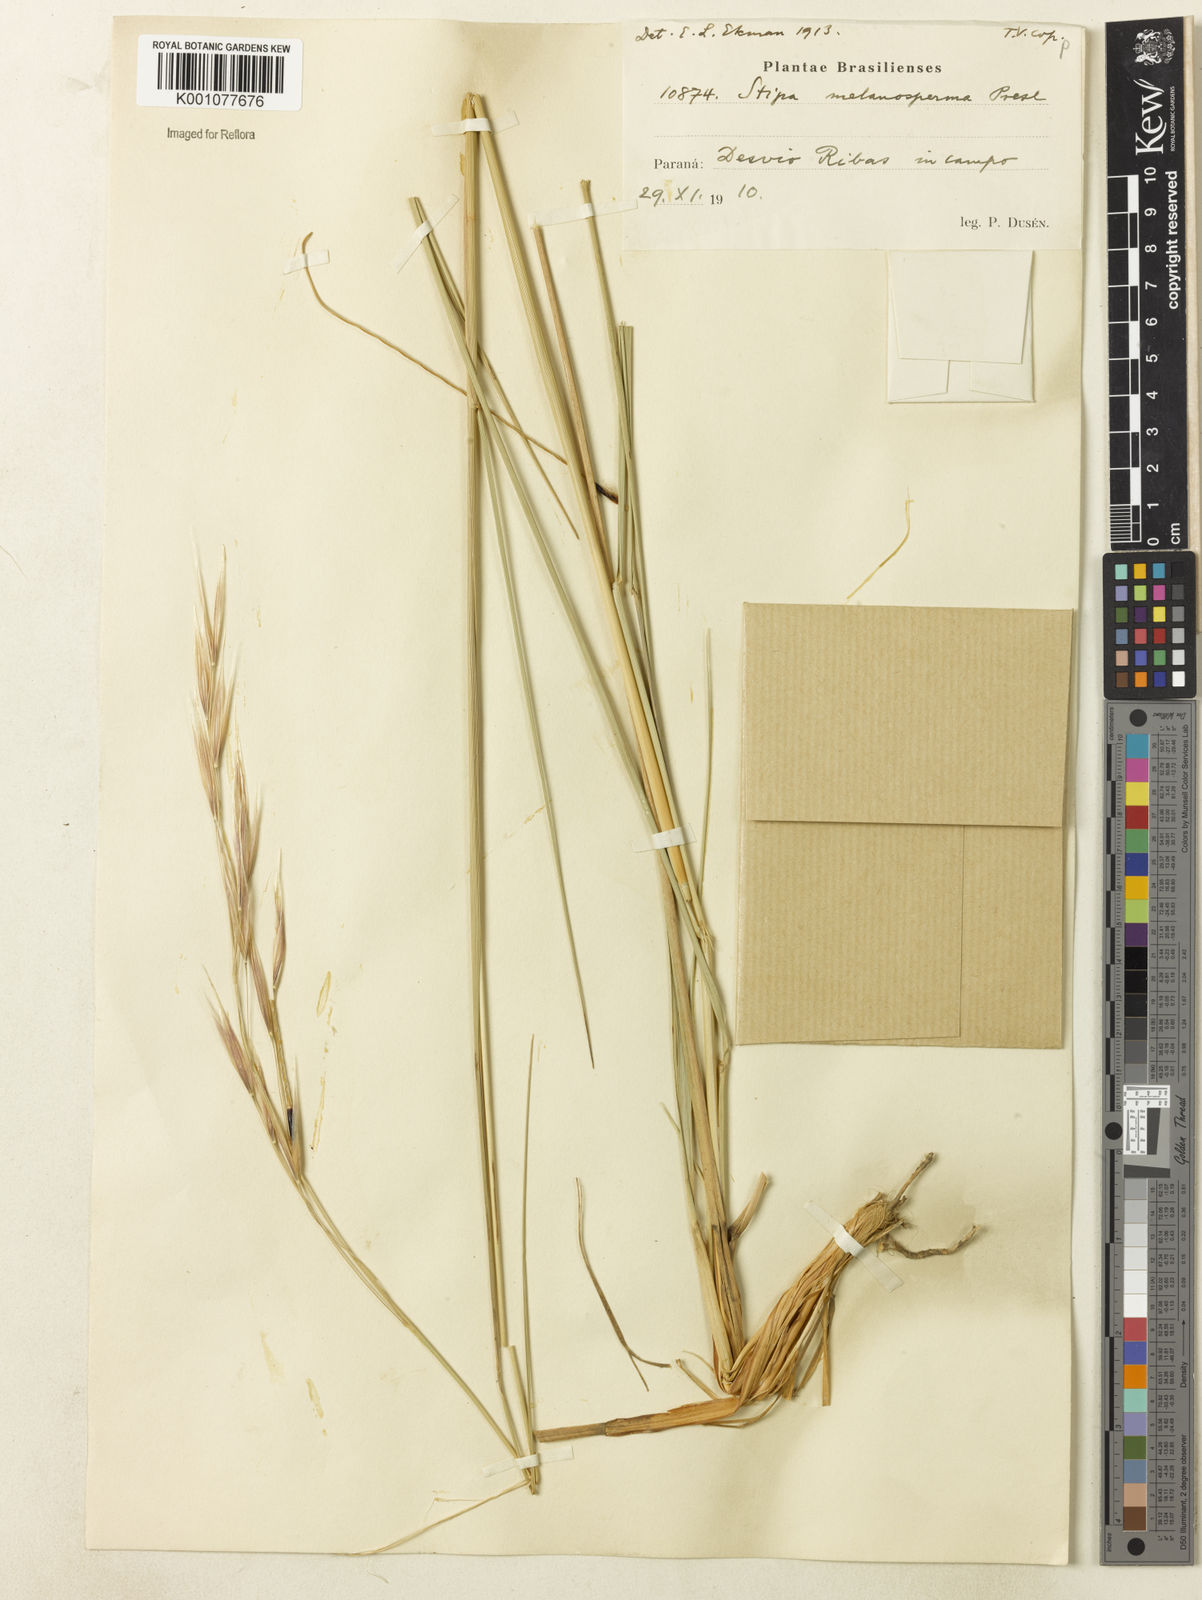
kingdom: Plantae
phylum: Tracheophyta
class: Liliopsida
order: Poales
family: Poaceae
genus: Nassella
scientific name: Nassella melanosperma
